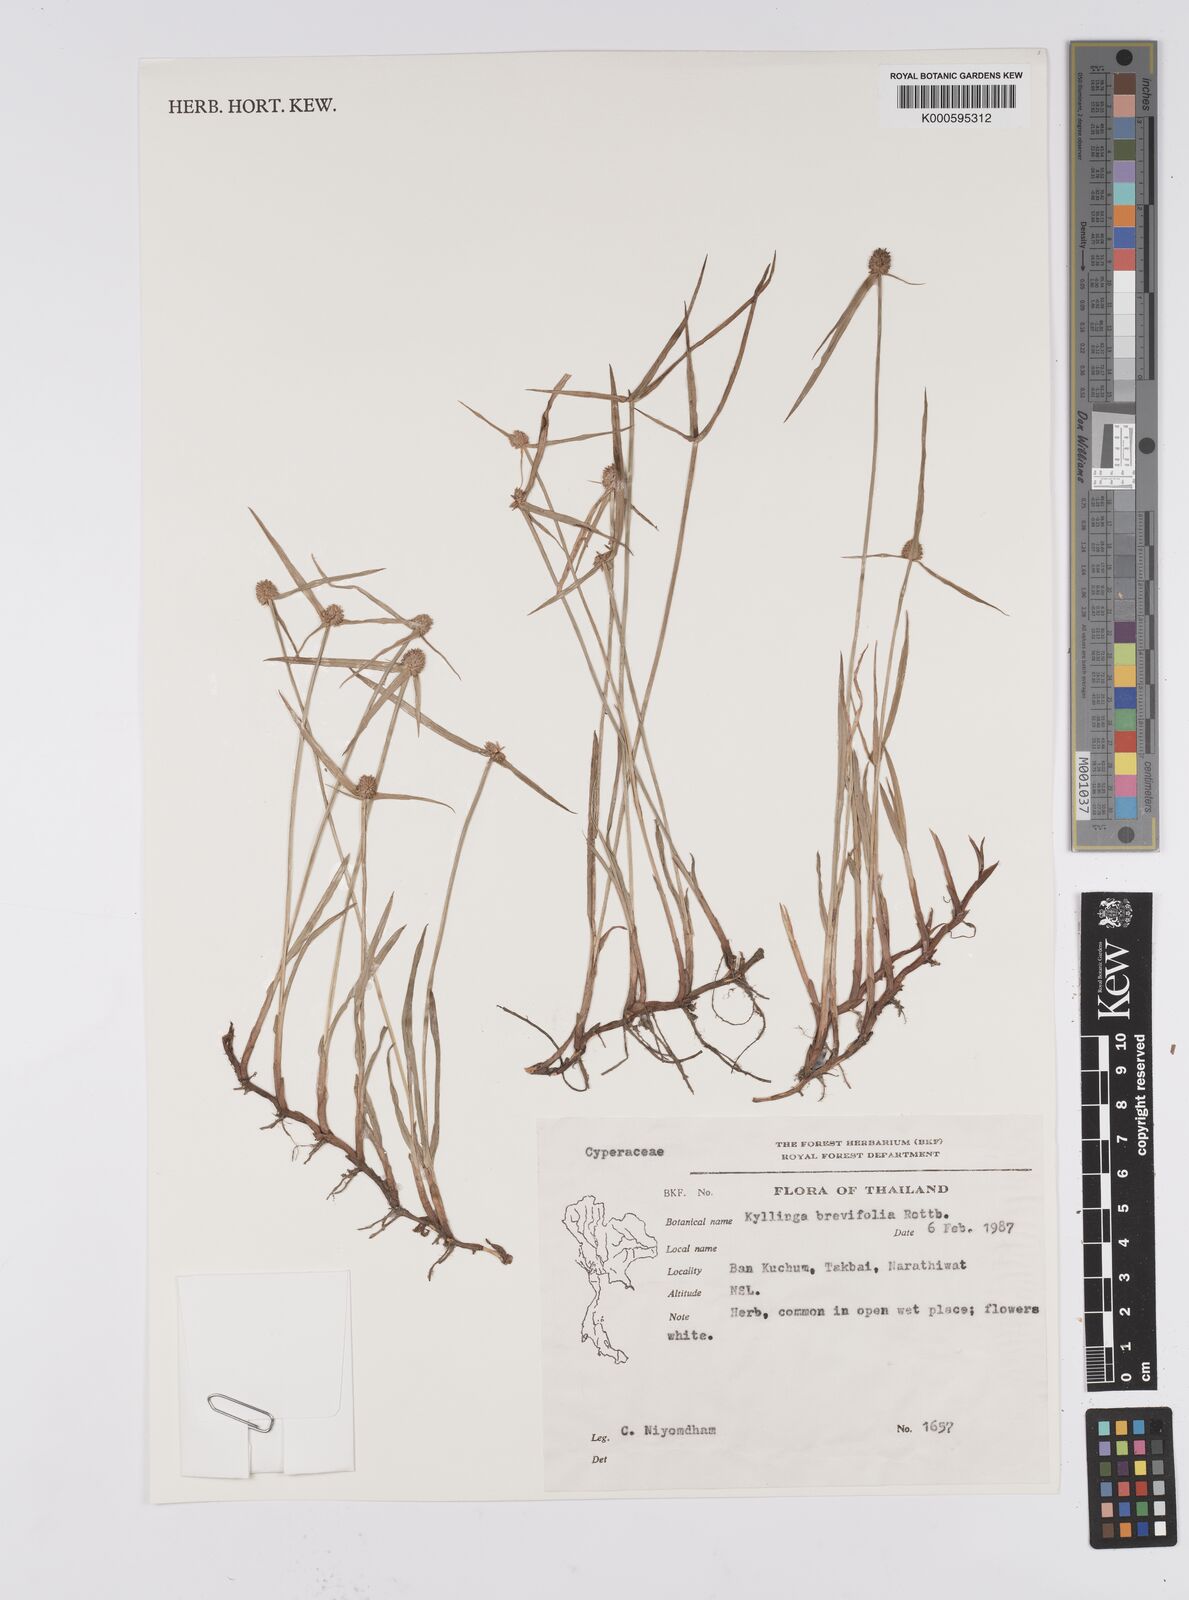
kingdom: Plantae
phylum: Tracheophyta
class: Liliopsida
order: Poales
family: Cyperaceae
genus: Cyperus
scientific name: Cyperus brevifolius
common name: Globe kyllinga
